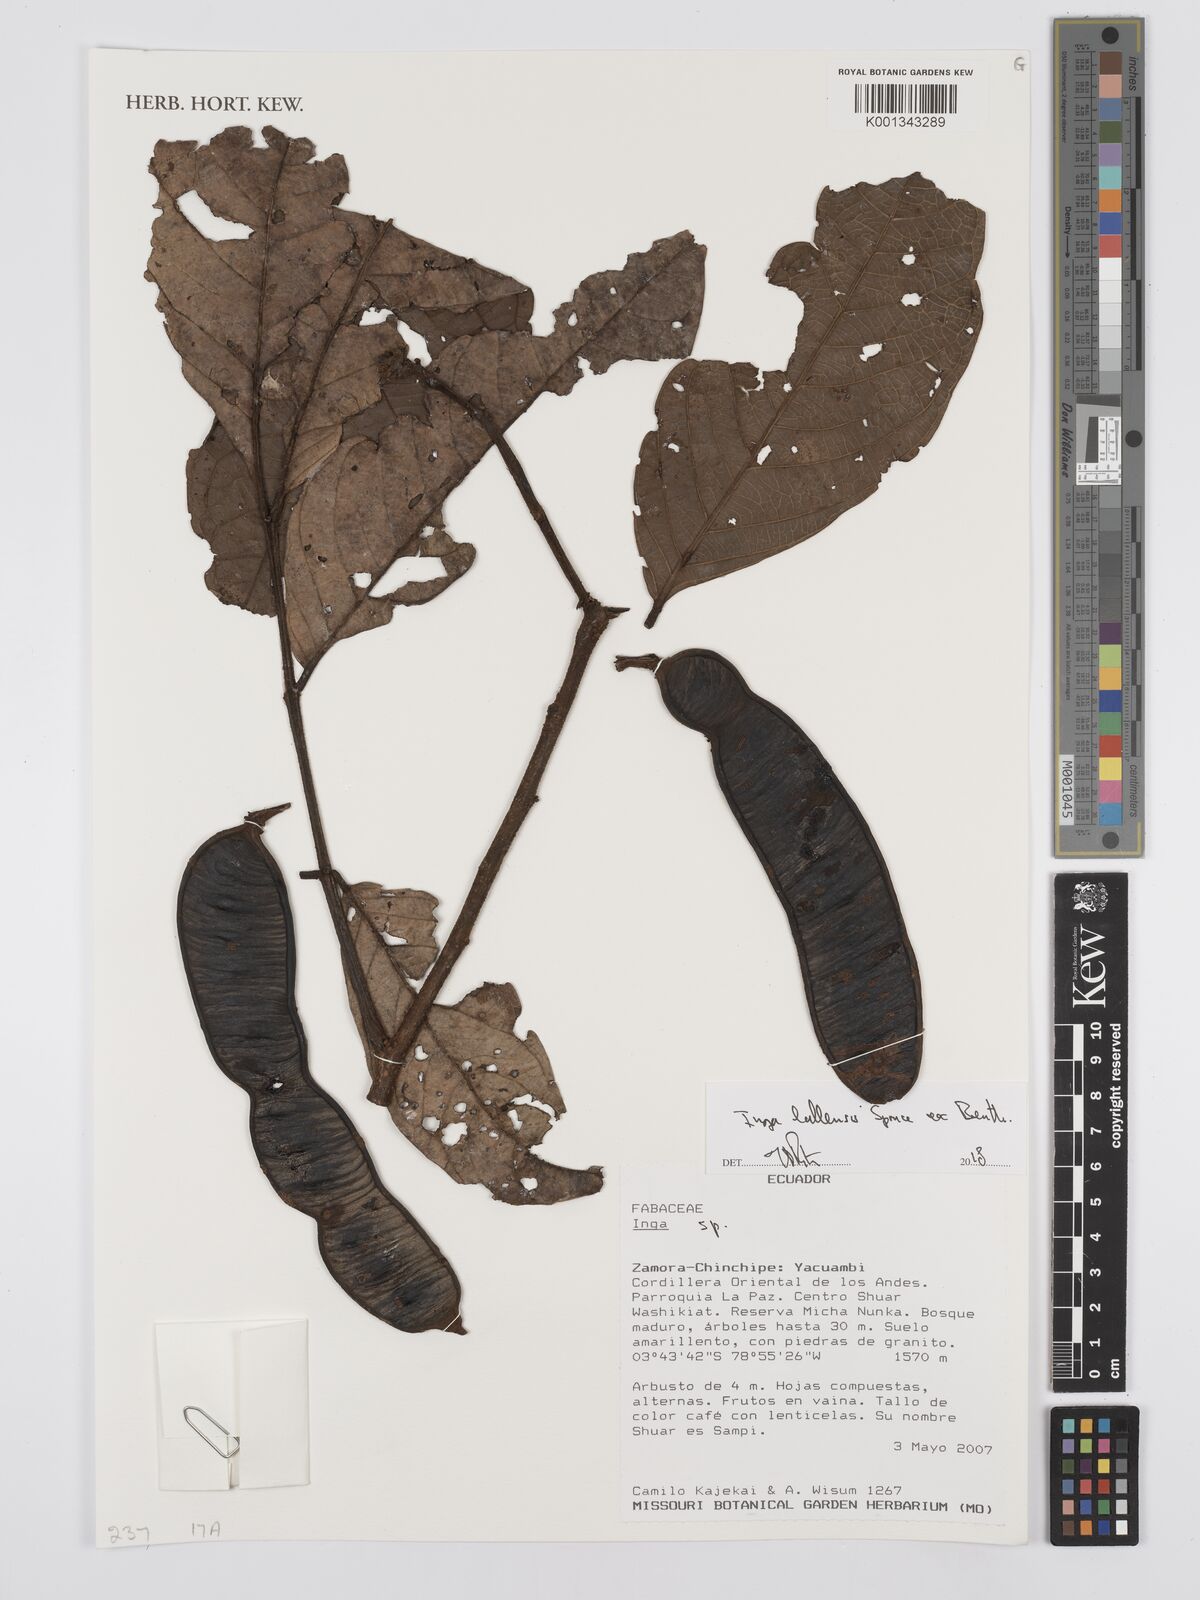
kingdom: Plantae
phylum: Tracheophyta
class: Magnoliopsida
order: Fabales
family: Fabaceae
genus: Inga
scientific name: Inga lallensis
